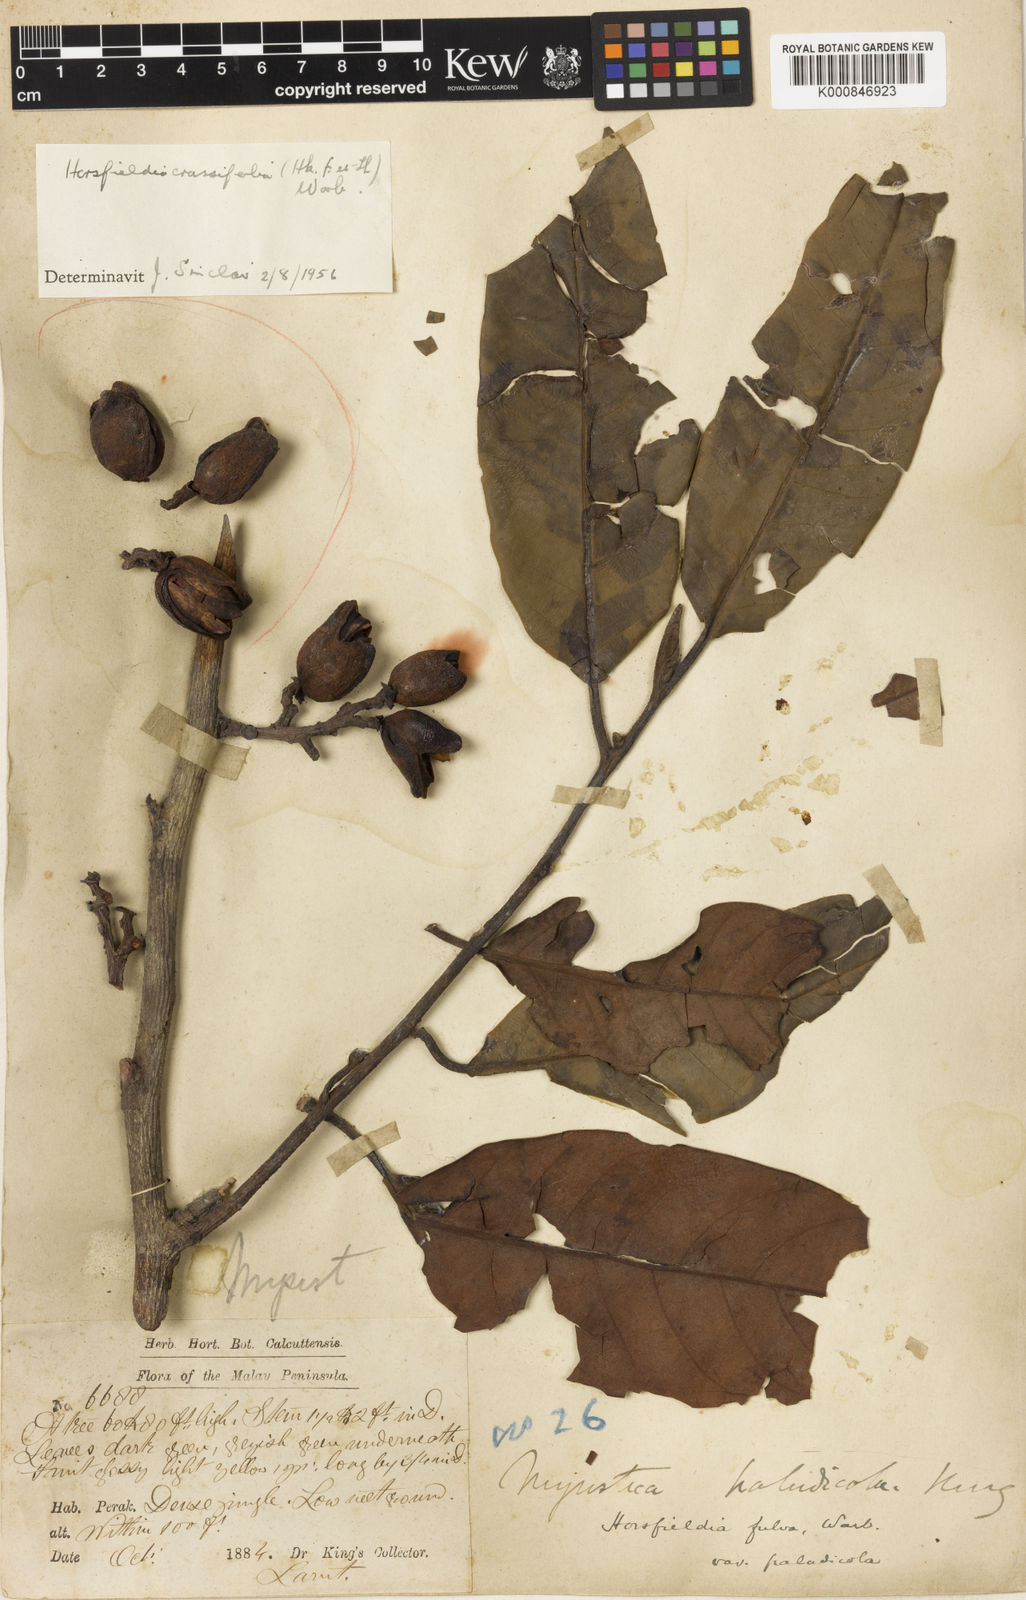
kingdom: Plantae
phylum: Tracheophyta
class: Magnoliopsida
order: Magnoliales
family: Myristicaceae
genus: Horsfieldia
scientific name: Horsfieldia crassifolia
